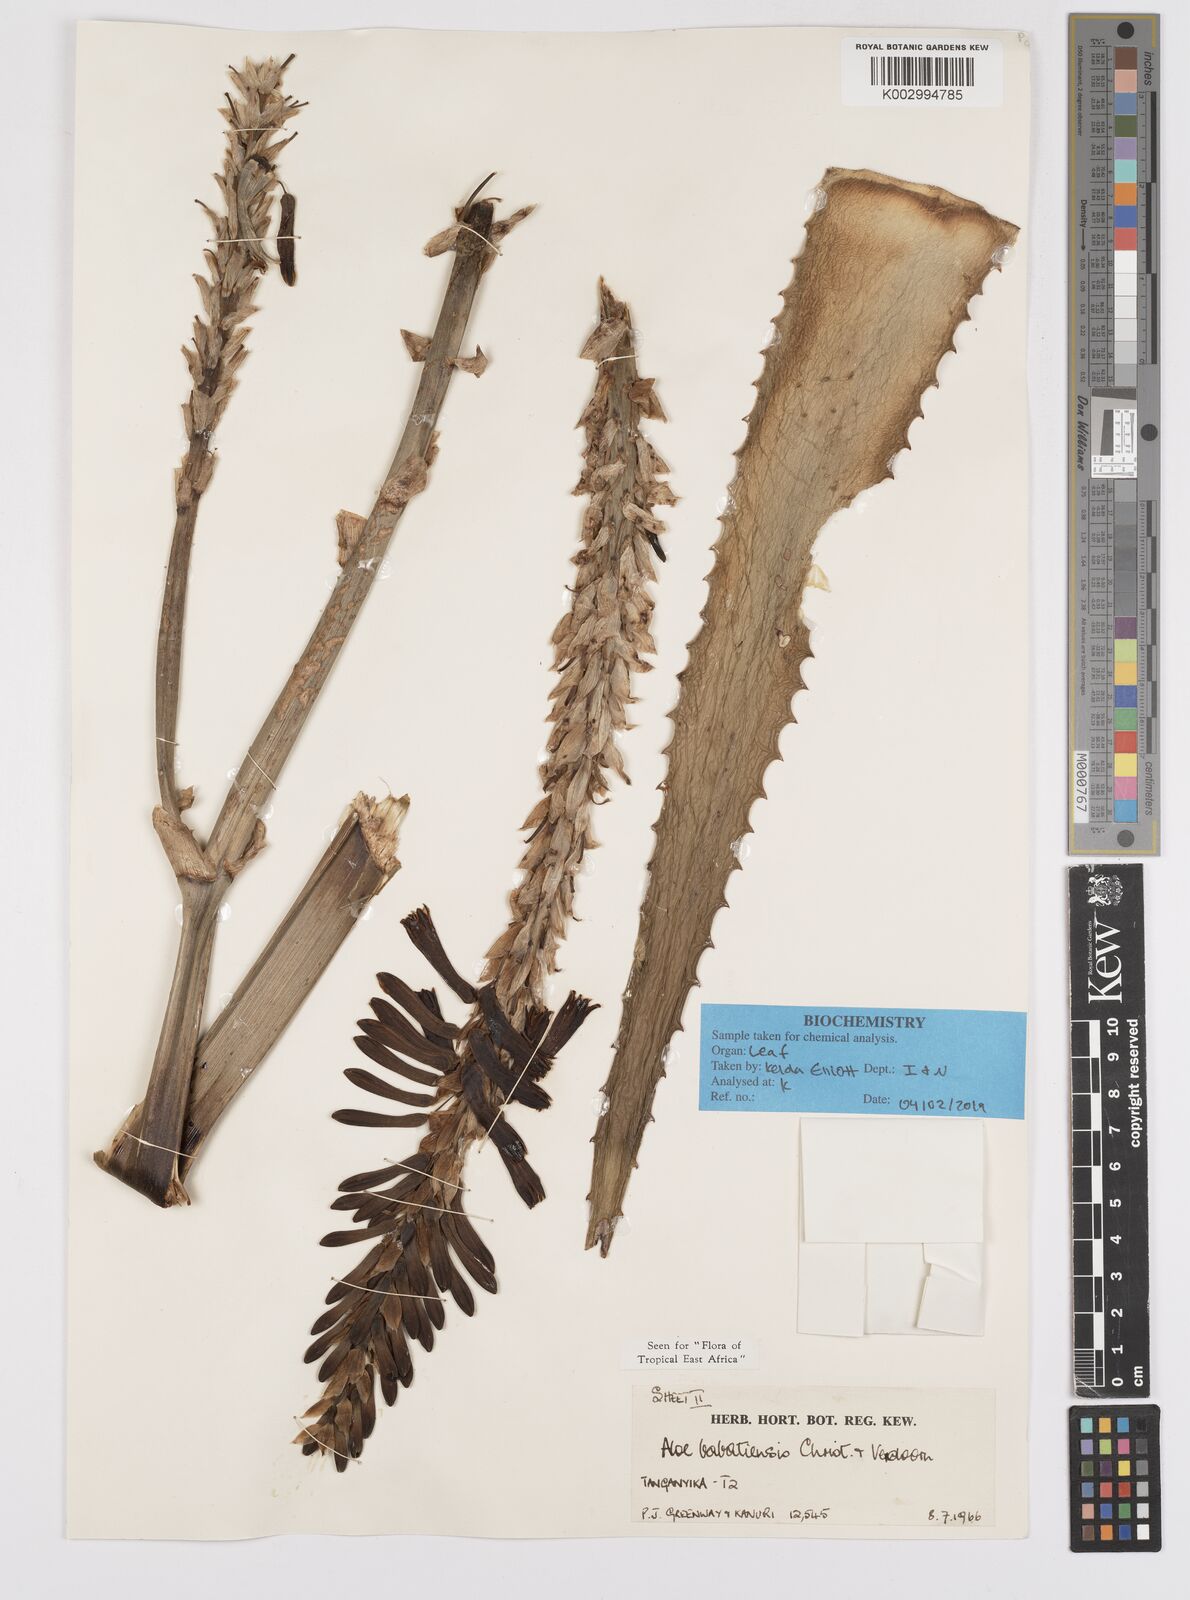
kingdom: Plantae
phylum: Tracheophyta
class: Liliopsida
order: Asparagales
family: Asphodelaceae
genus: Aloe
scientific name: Aloe babatiensis
